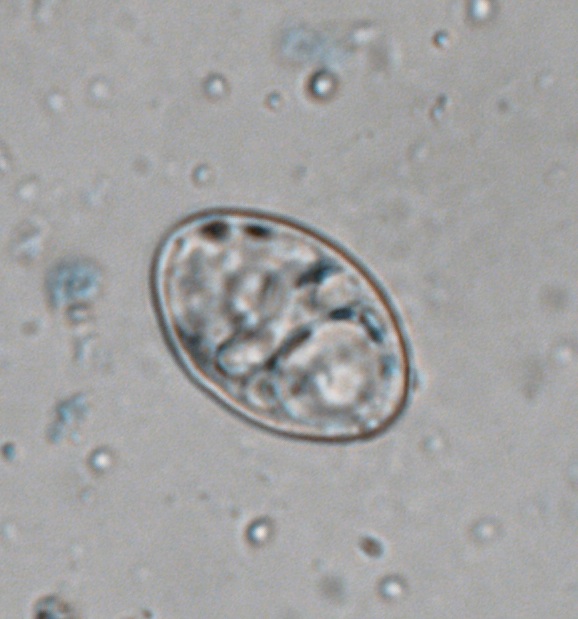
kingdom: Fungi
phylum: Ascomycota
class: Leotiomycetes
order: Helotiales
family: Erysiphaceae
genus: Podosphaera
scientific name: Podosphaera phtheirospermi
